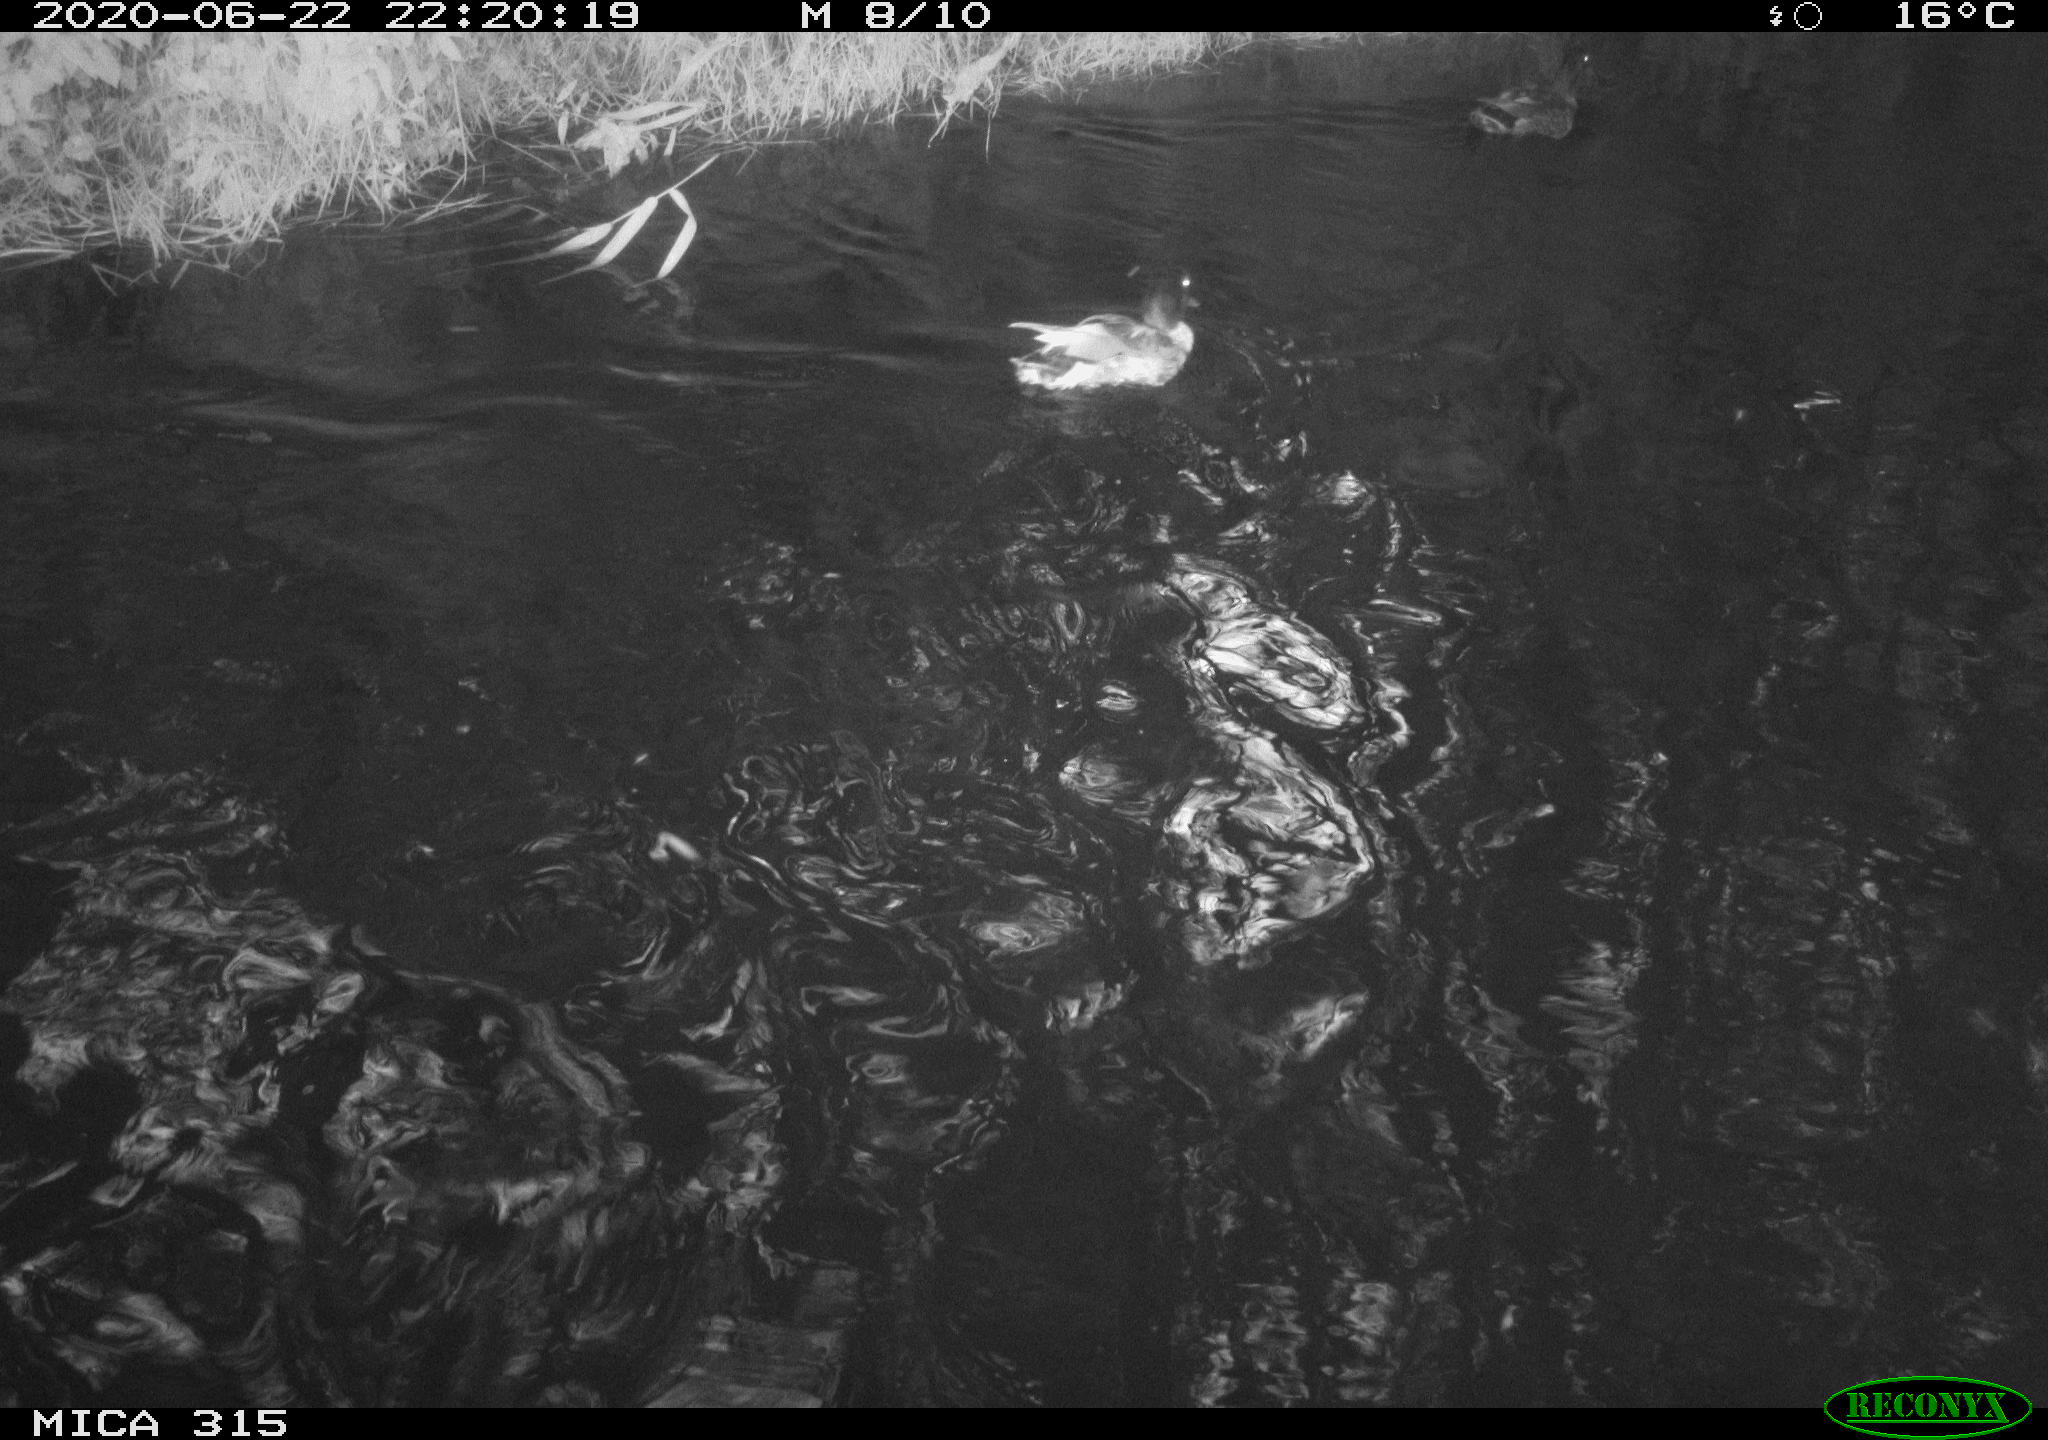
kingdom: Animalia
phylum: Chordata
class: Aves
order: Anseriformes
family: Anatidae
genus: Anas
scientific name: Anas platyrhynchos
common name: Mallard
